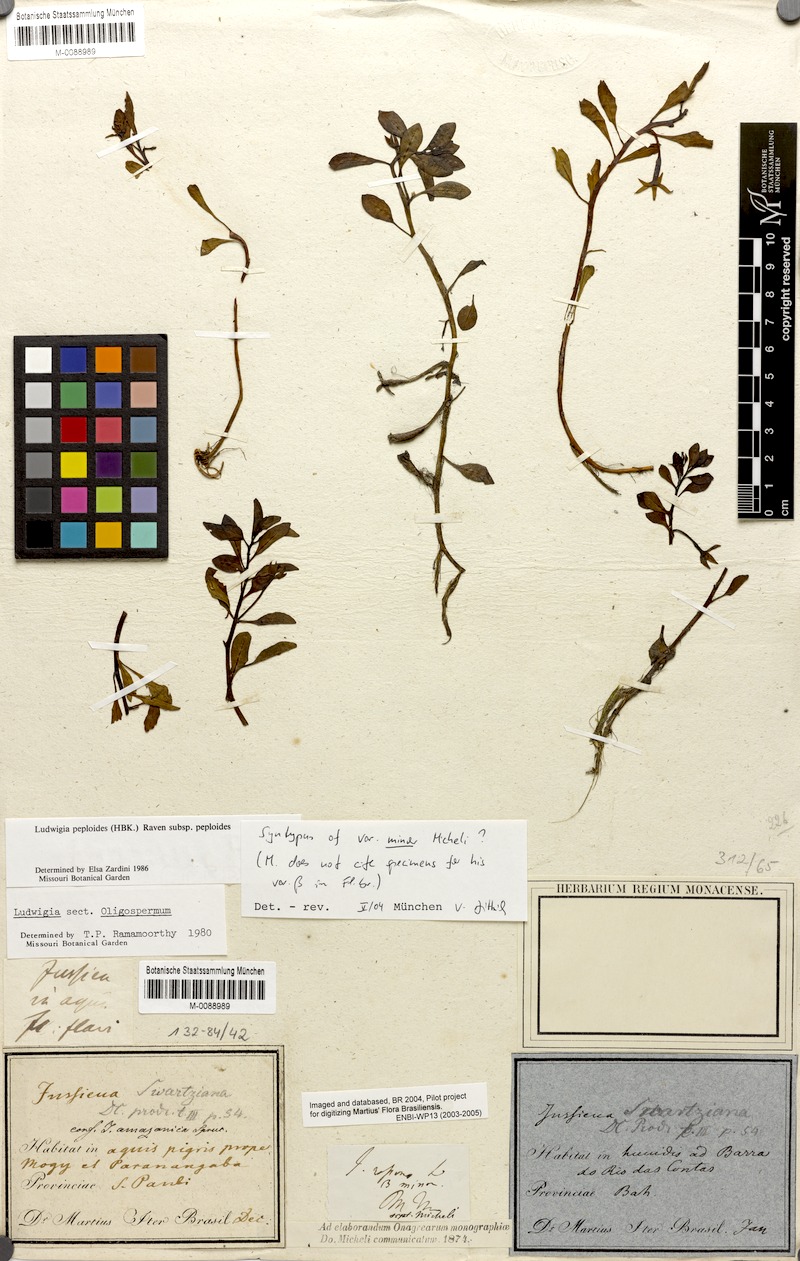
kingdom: Plantae
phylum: Tracheophyta
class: Magnoliopsida
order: Myrtales
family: Onagraceae
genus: Ludwigia
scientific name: Ludwigia peploides
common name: Floating primrose-willow
